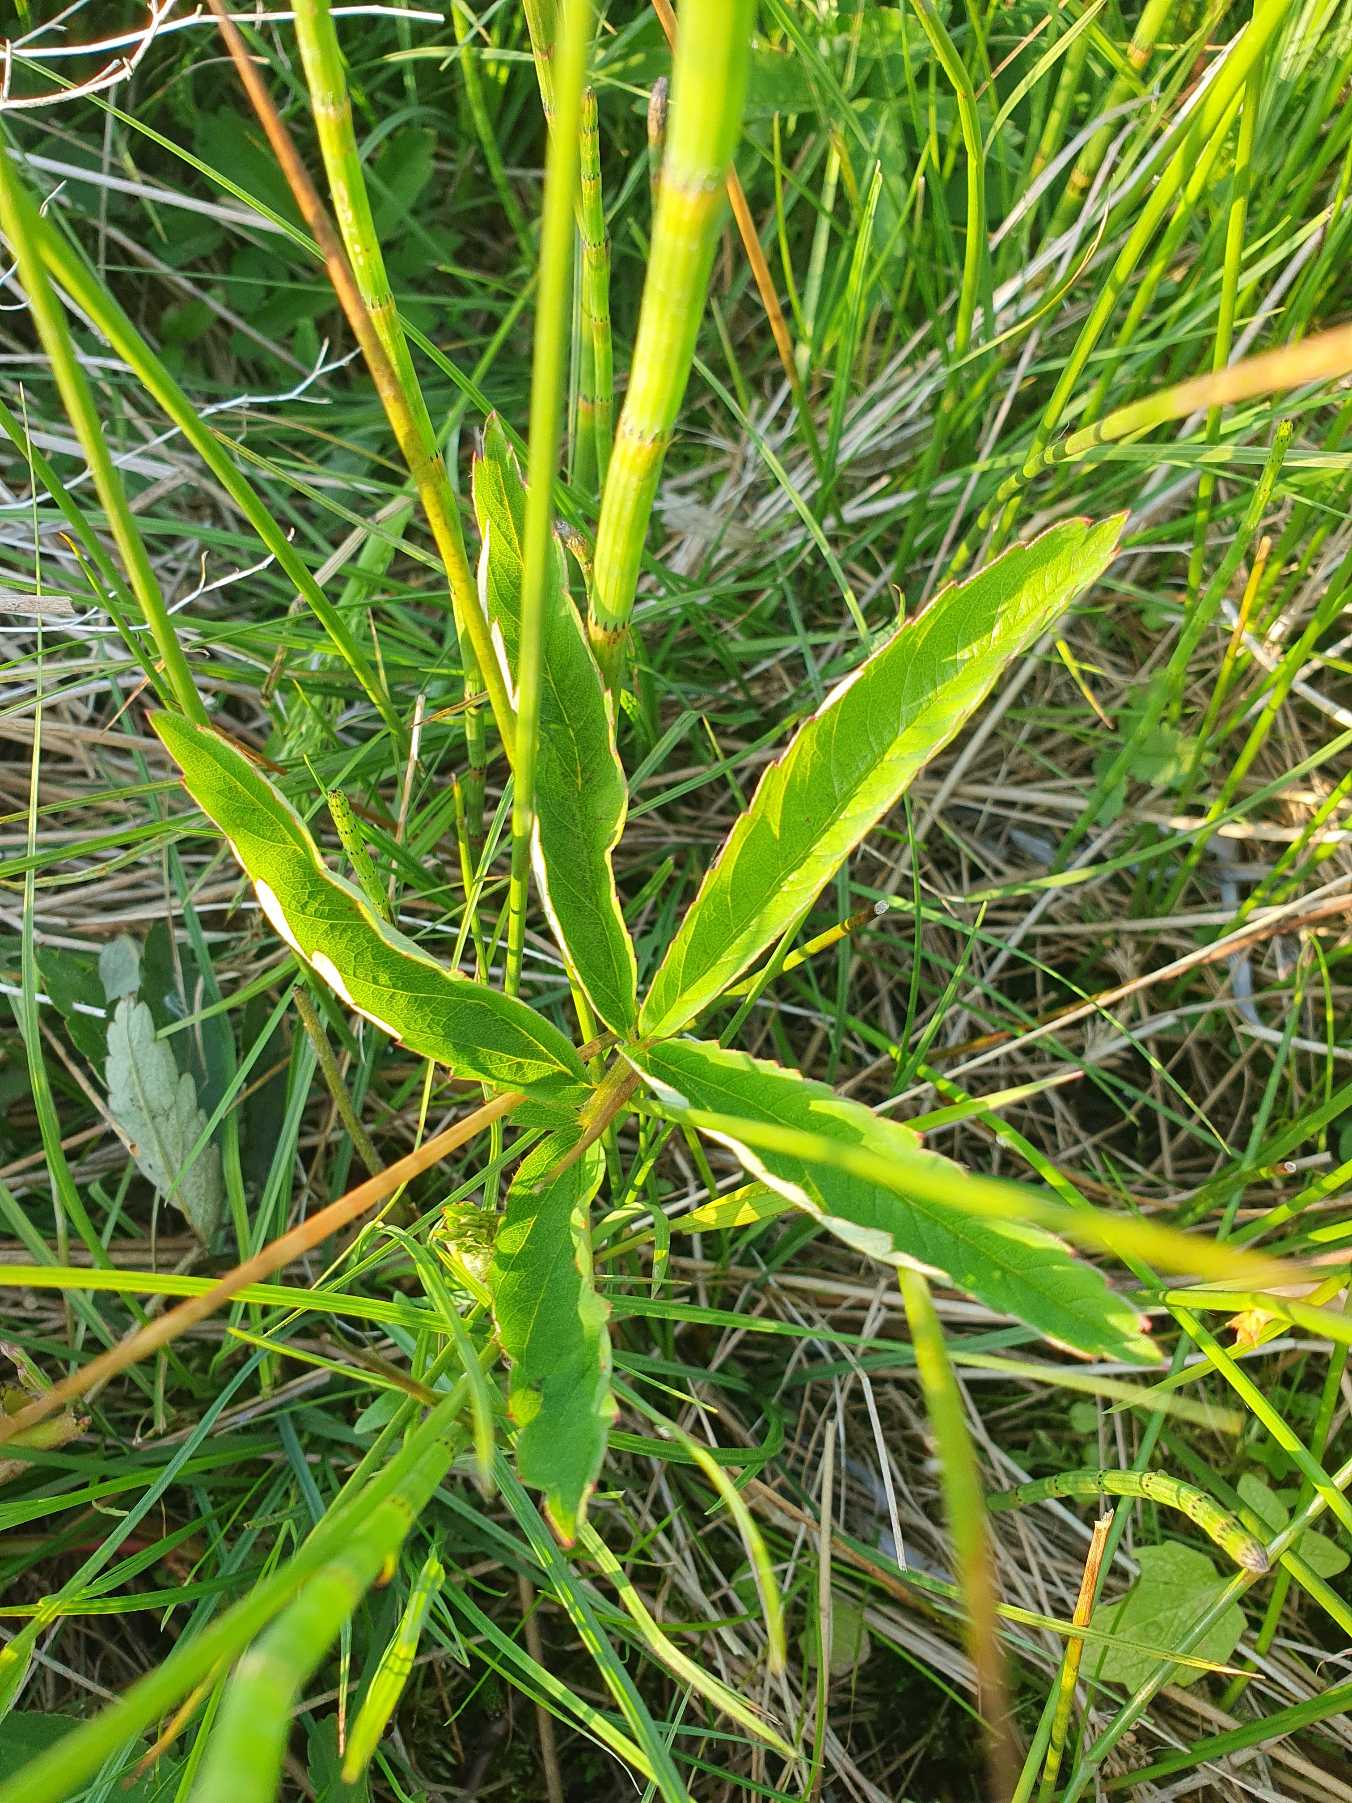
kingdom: Plantae
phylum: Tracheophyta
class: Magnoliopsida
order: Rosales
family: Rosaceae
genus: Comarum
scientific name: Comarum palustre
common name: Kragefod
